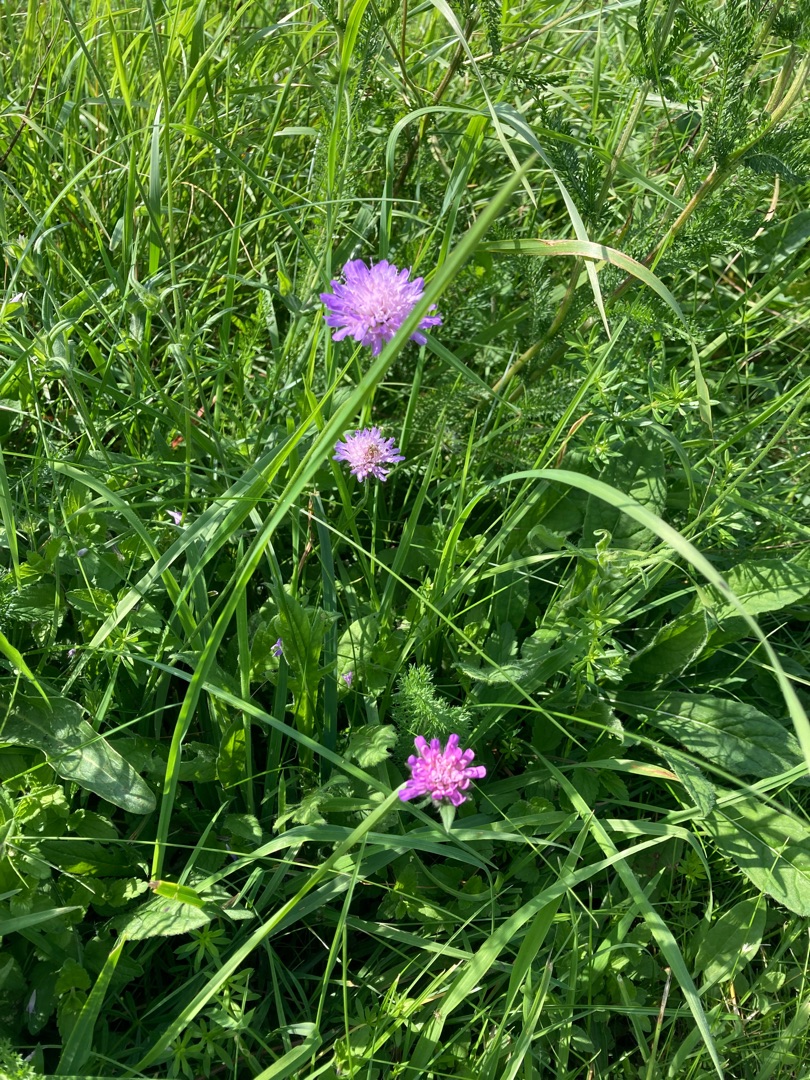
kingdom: Plantae
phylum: Tracheophyta
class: Magnoliopsida
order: Dipsacales
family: Caprifoliaceae
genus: Knautia
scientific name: Knautia arvensis
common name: Blåhat
